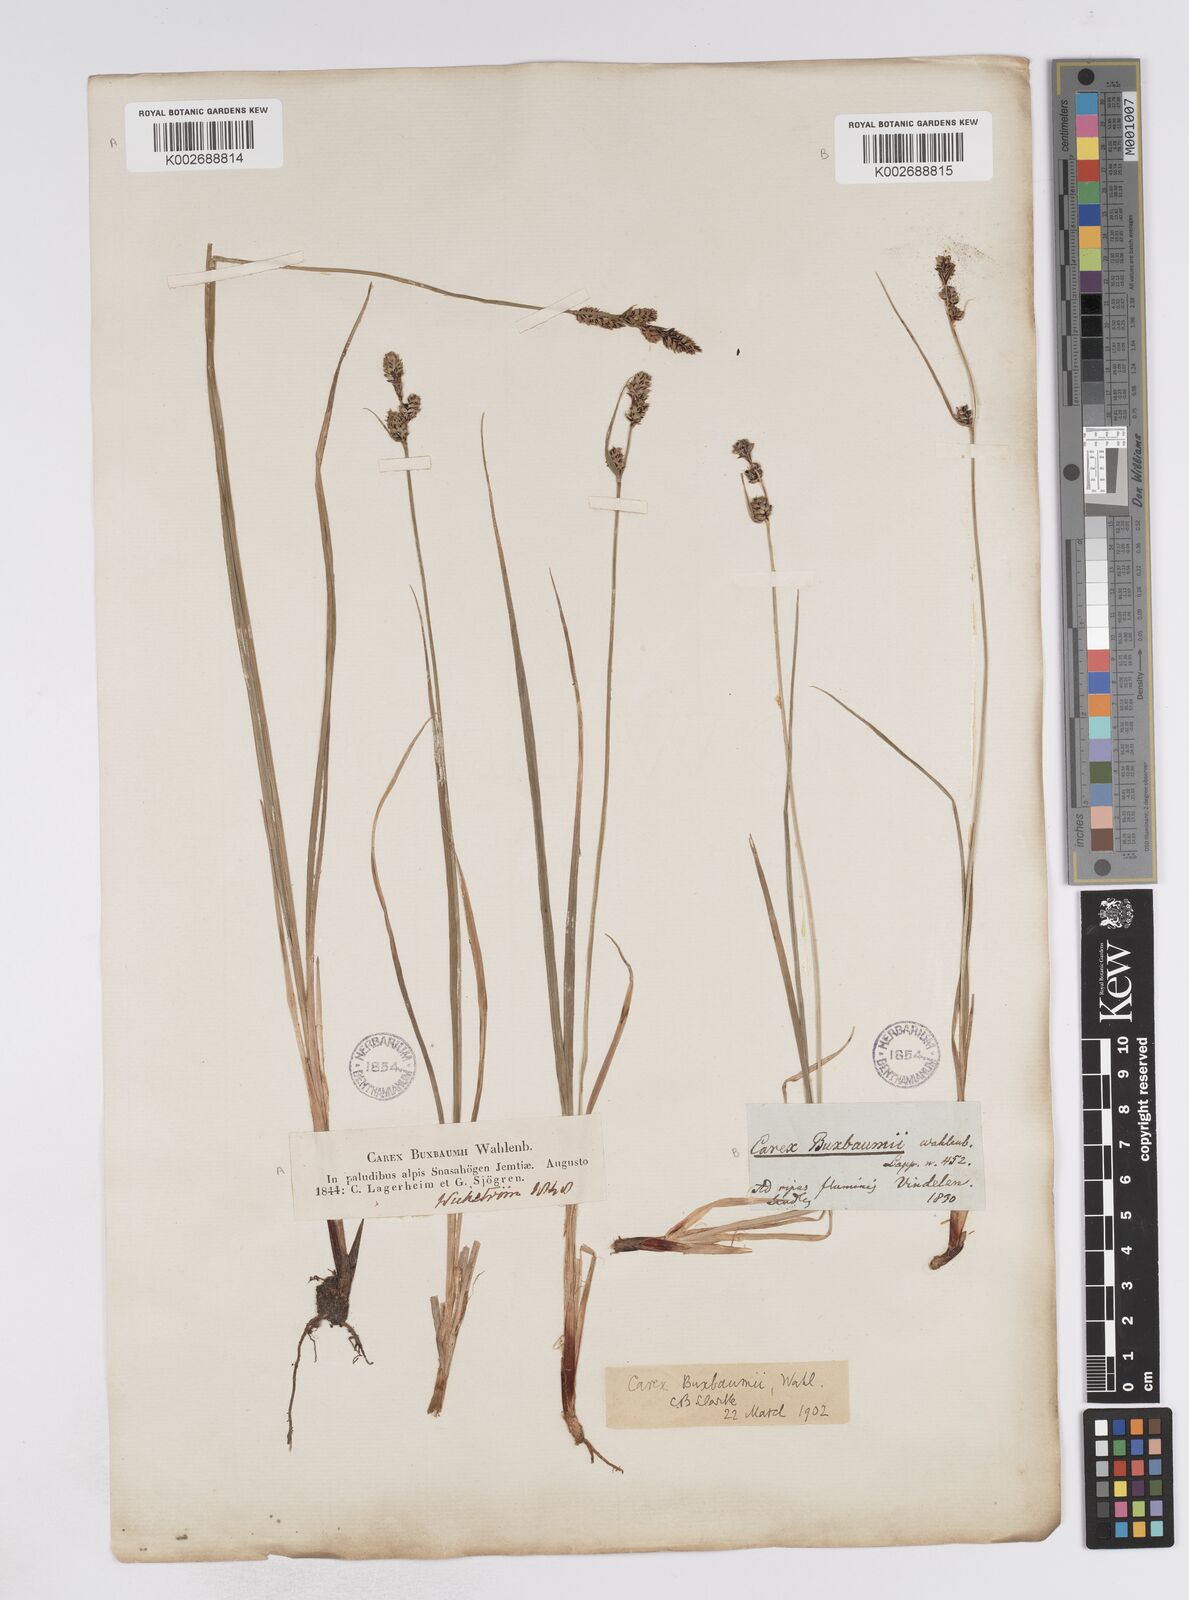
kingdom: Plantae
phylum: Tracheophyta
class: Liliopsida
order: Poales
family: Cyperaceae
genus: Carex
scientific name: Carex buxbaumii
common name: Club sedge
